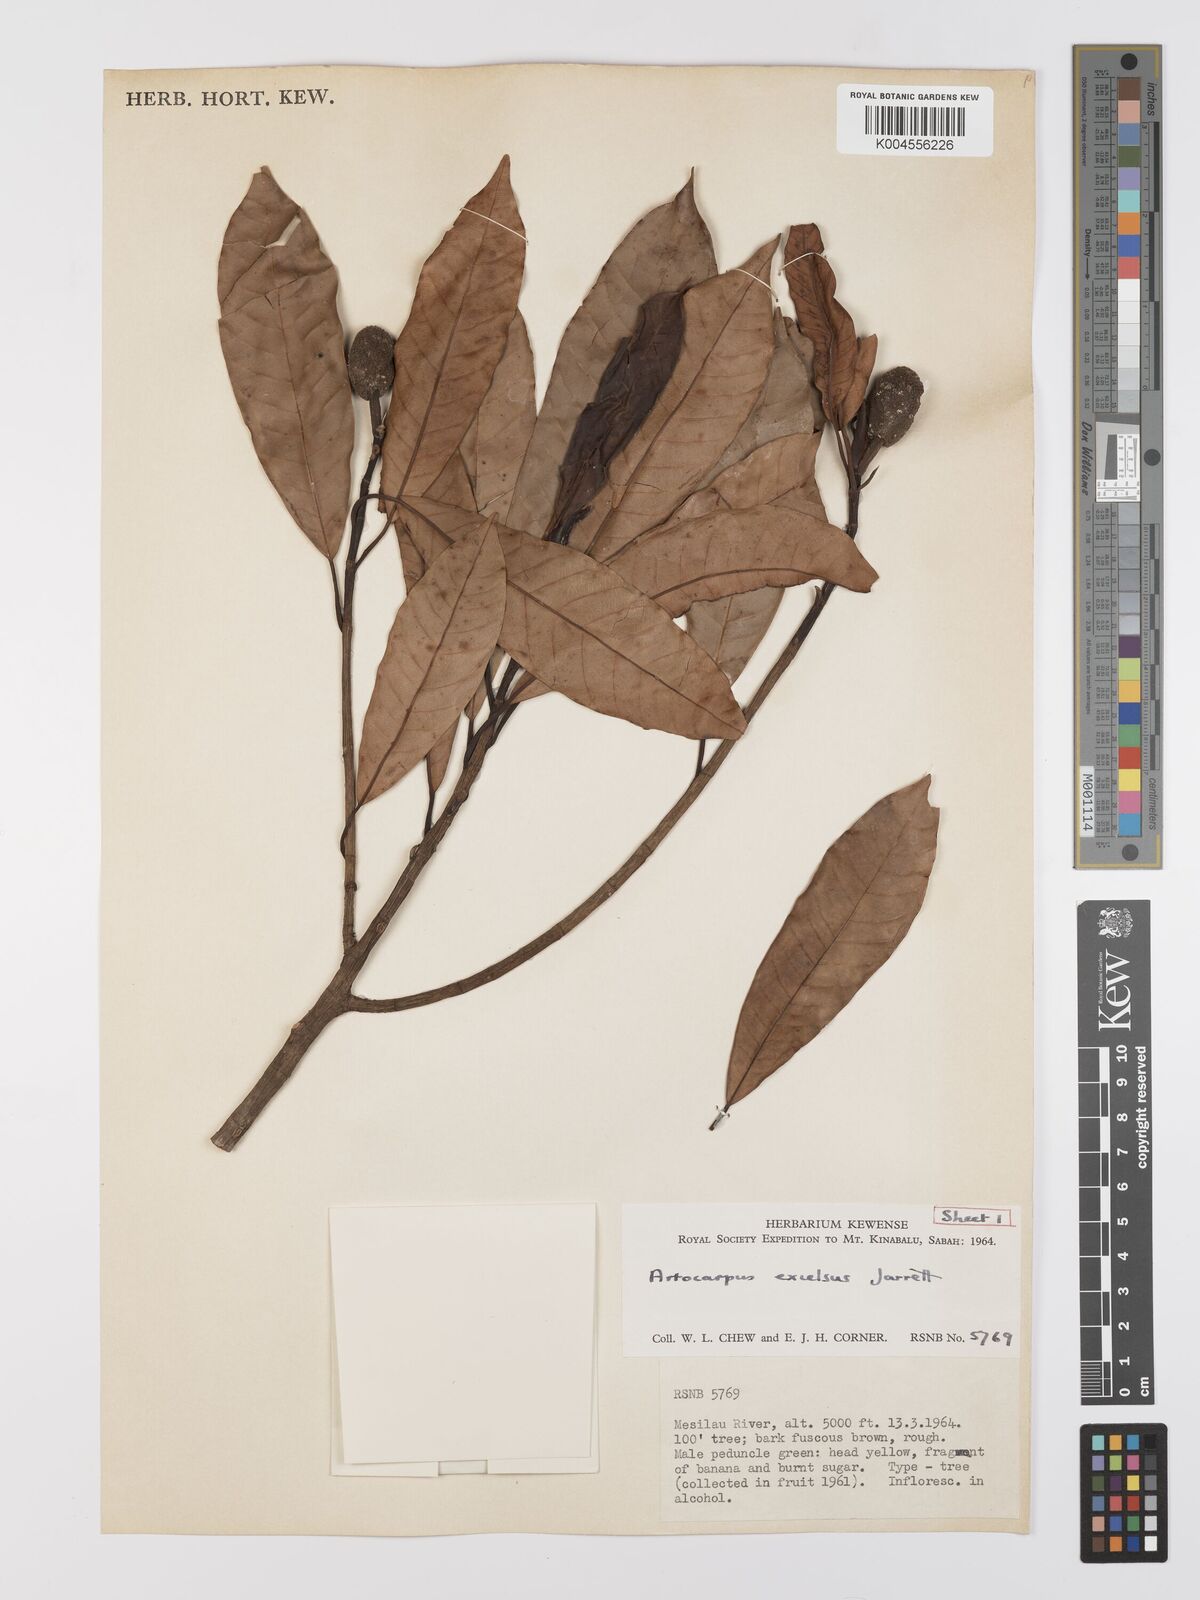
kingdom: Plantae
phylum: Tracheophyta
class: Magnoliopsida
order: Rosales
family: Moraceae
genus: Artocarpus
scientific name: Artocarpus excelsus
